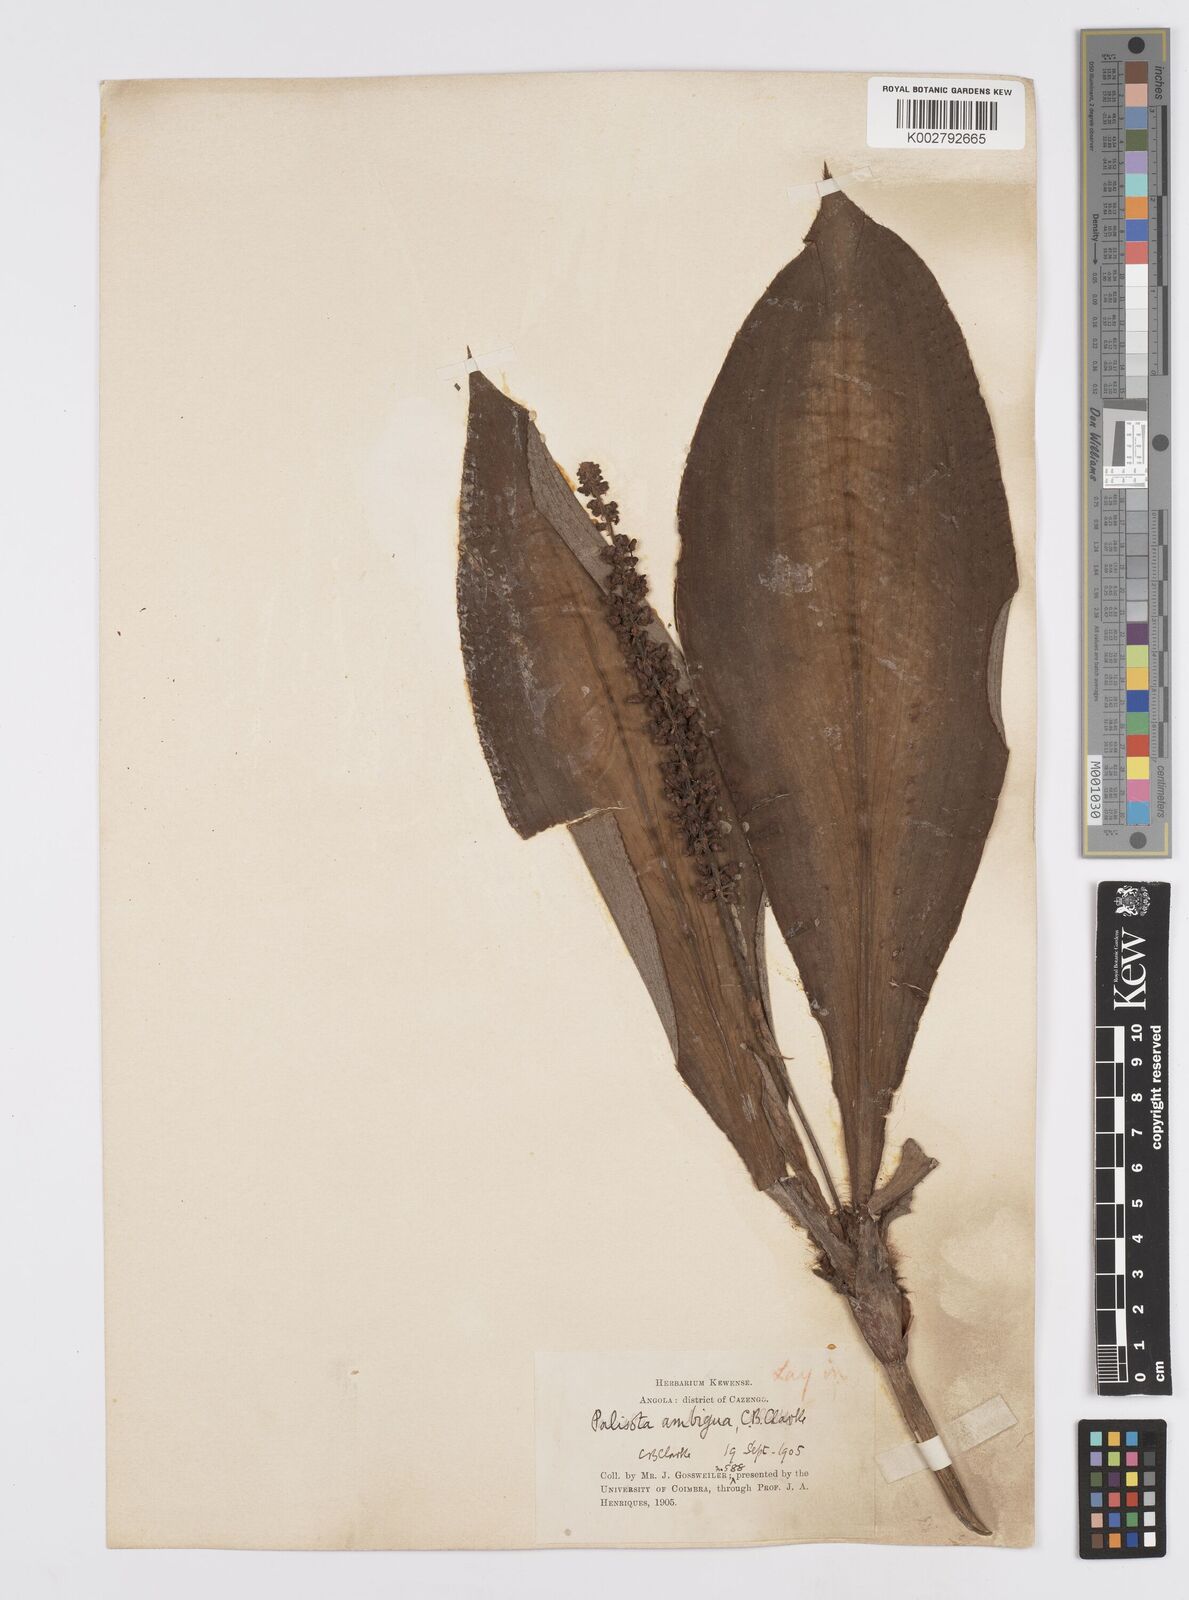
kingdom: Plantae
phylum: Tracheophyta
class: Liliopsida
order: Commelinales
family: Commelinaceae
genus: Palisota
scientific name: Palisota ambigua
